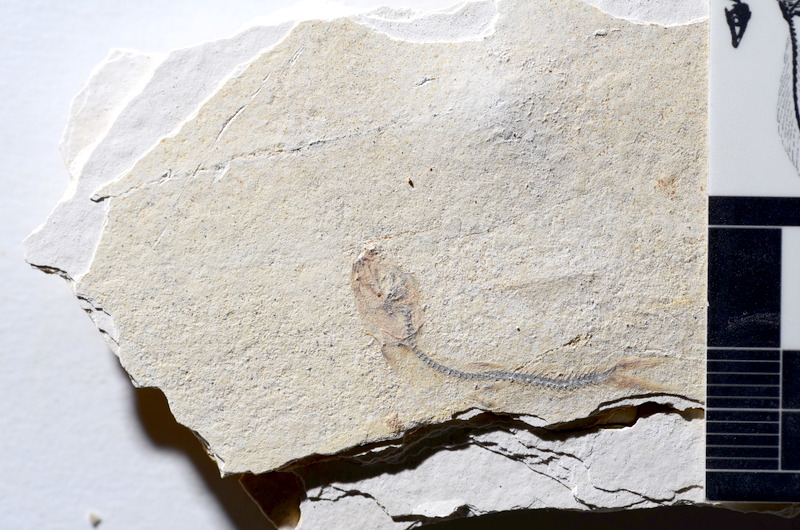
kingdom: Animalia
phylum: Chordata
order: Salmoniformes
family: Orthogonikleithridae
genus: Orthogonikleithrus
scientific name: Orthogonikleithrus hoelli
